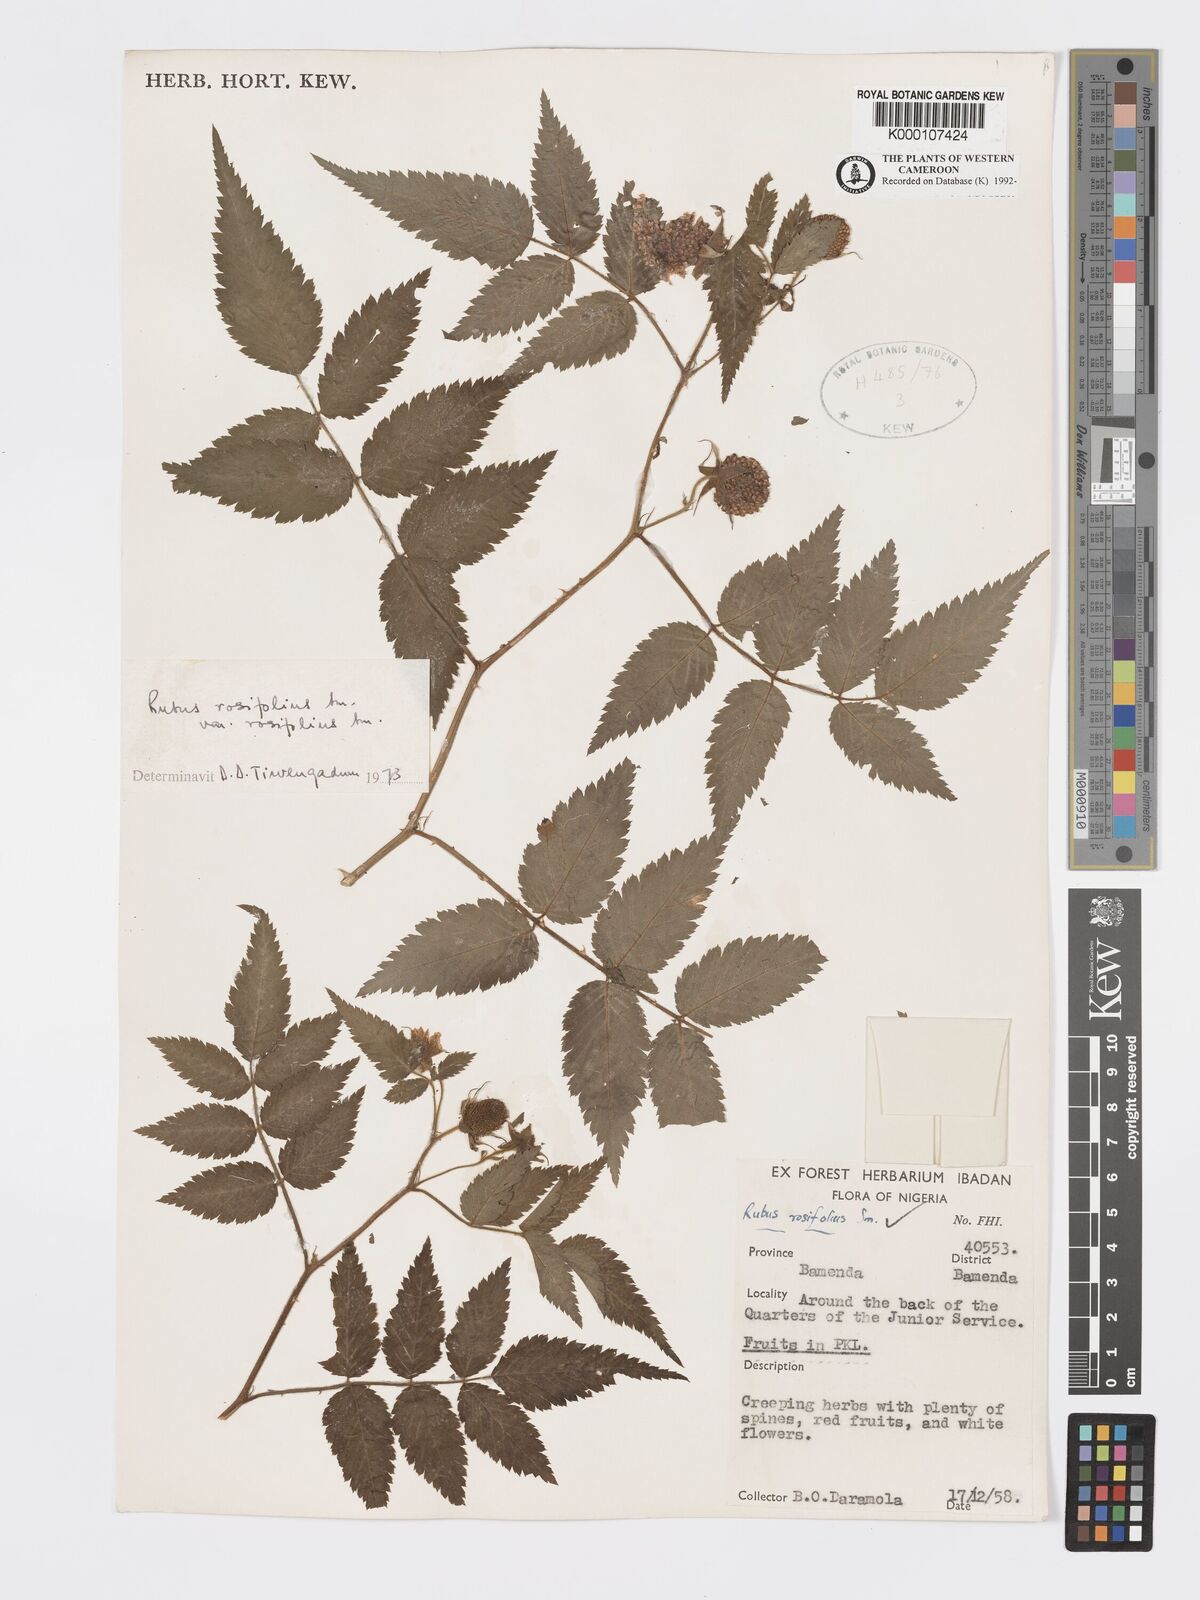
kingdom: Plantae
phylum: Tracheophyta
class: Magnoliopsida
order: Rosales
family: Rosaceae
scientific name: Rosaceae
